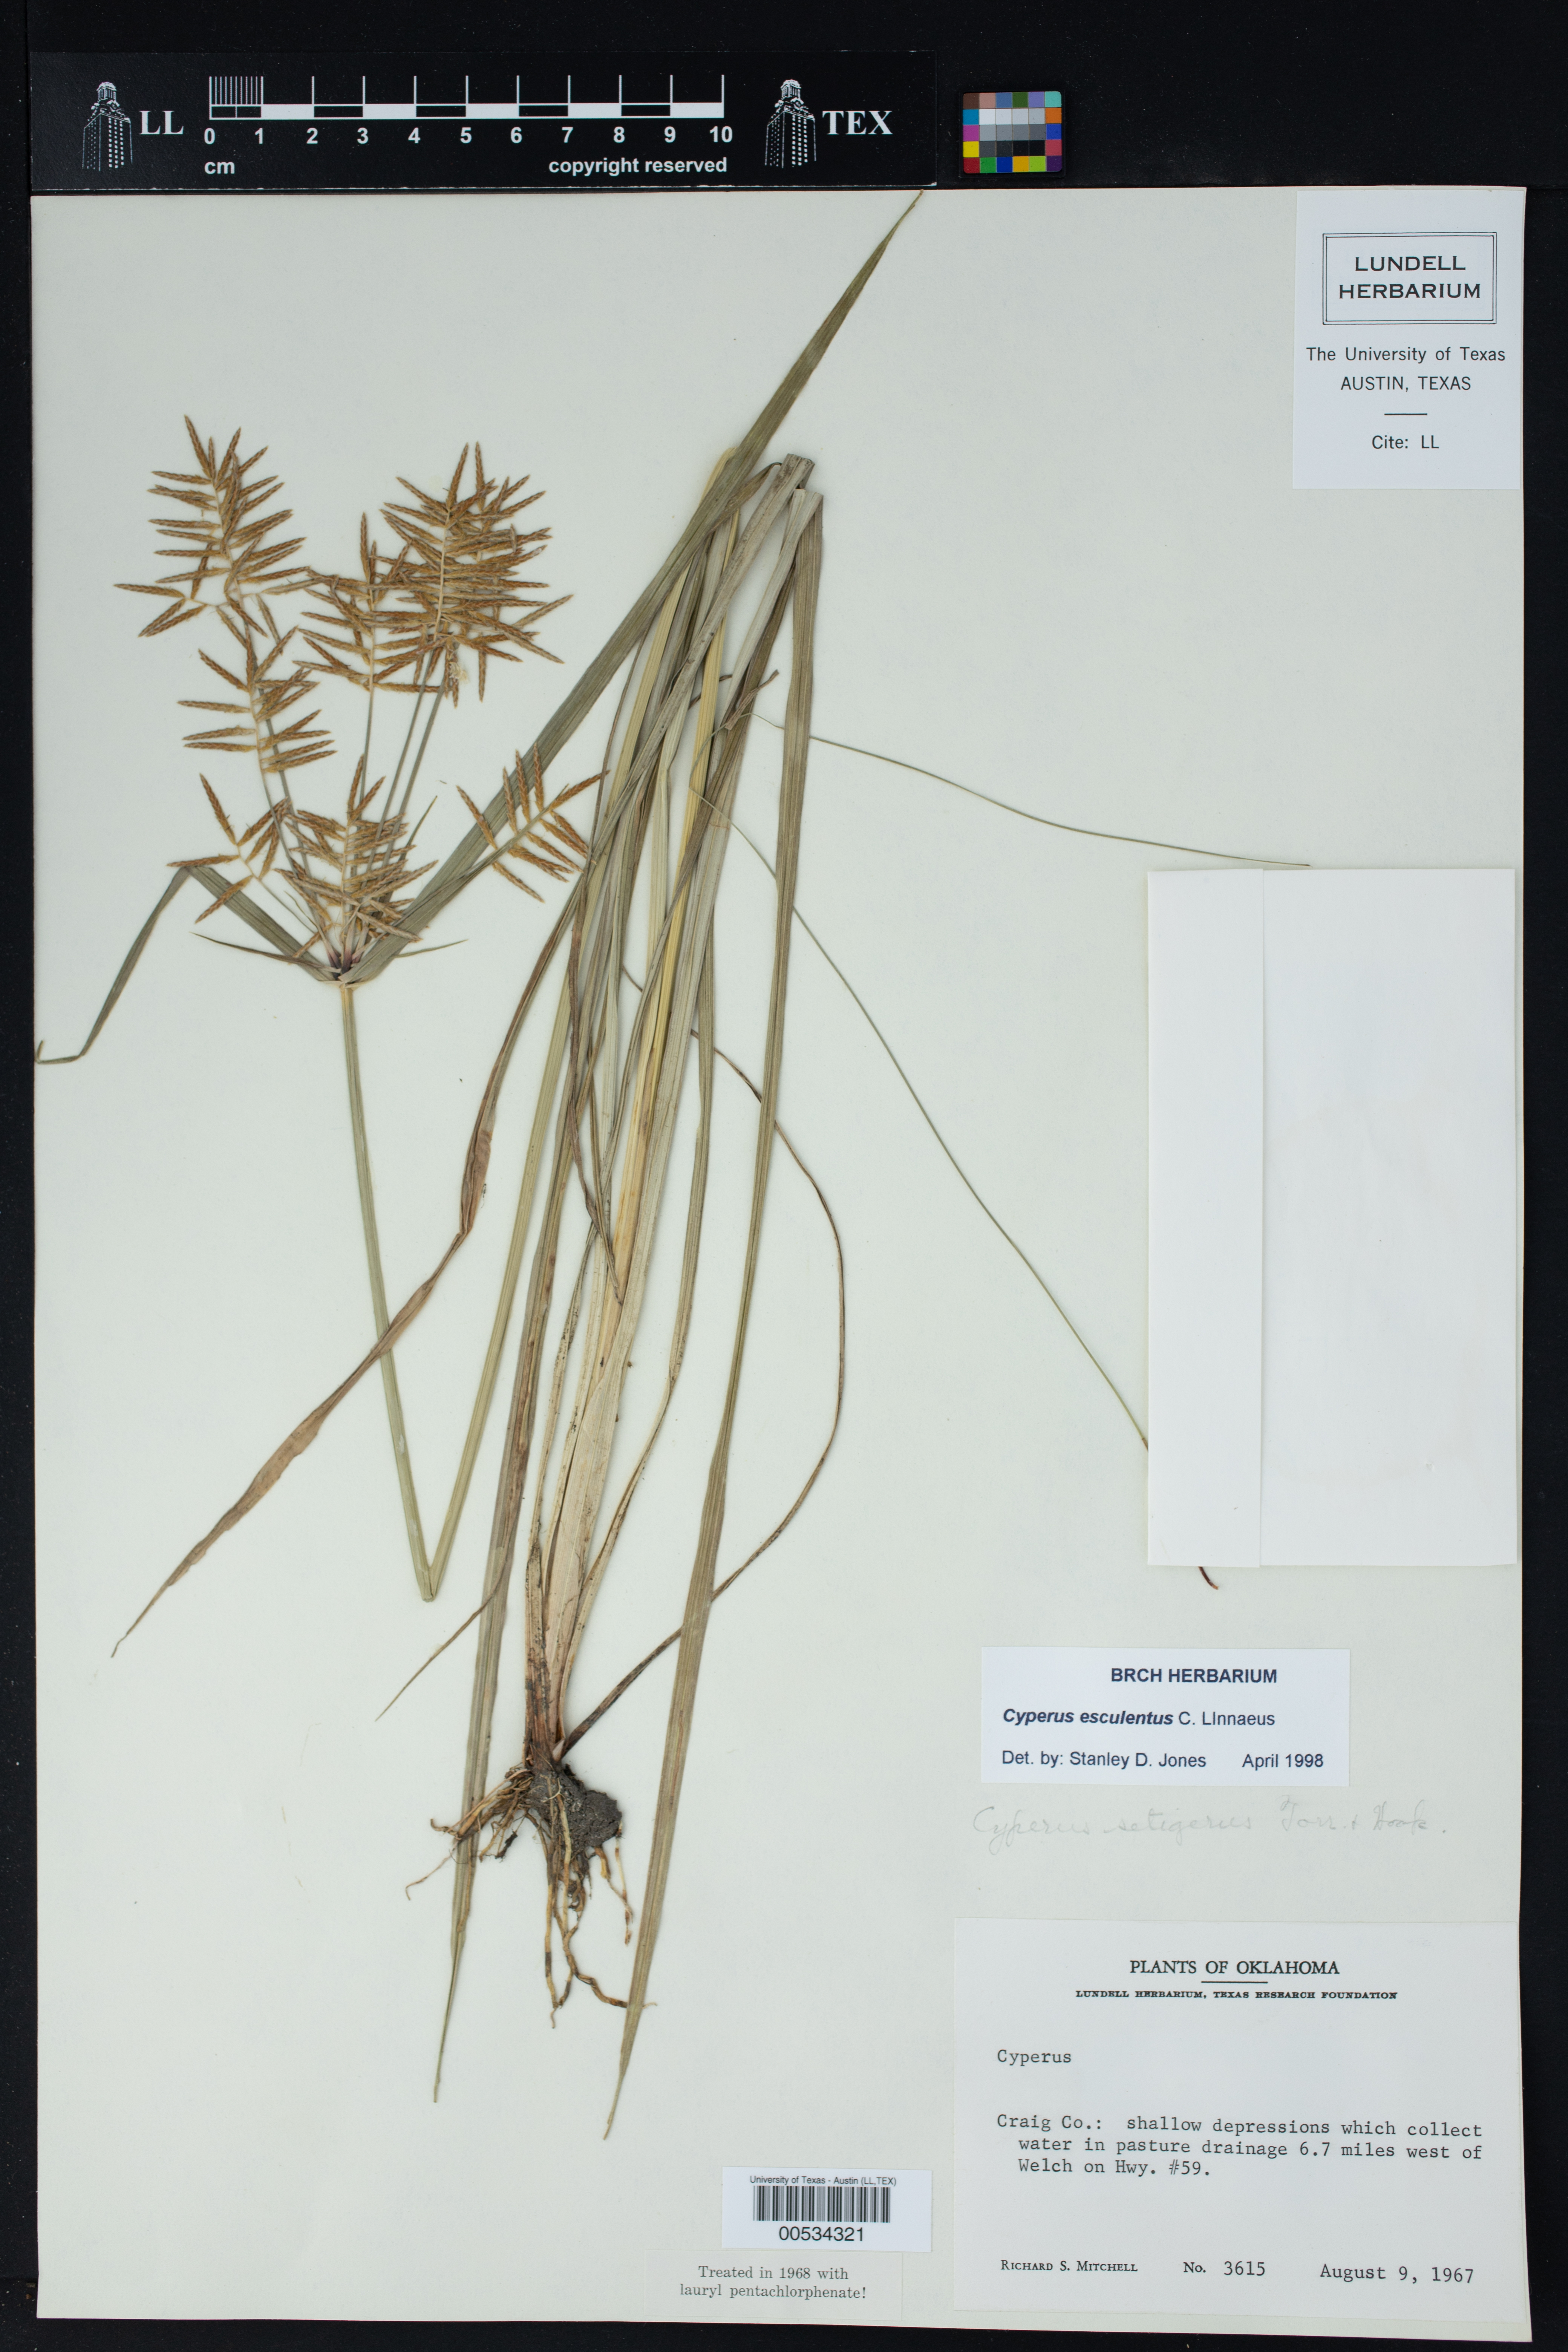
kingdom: Plantae
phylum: Tracheophyta
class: Liliopsida
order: Poales
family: Cyperaceae
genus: Cyperus
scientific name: Cyperus esculentus
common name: Yellow nutsedge
